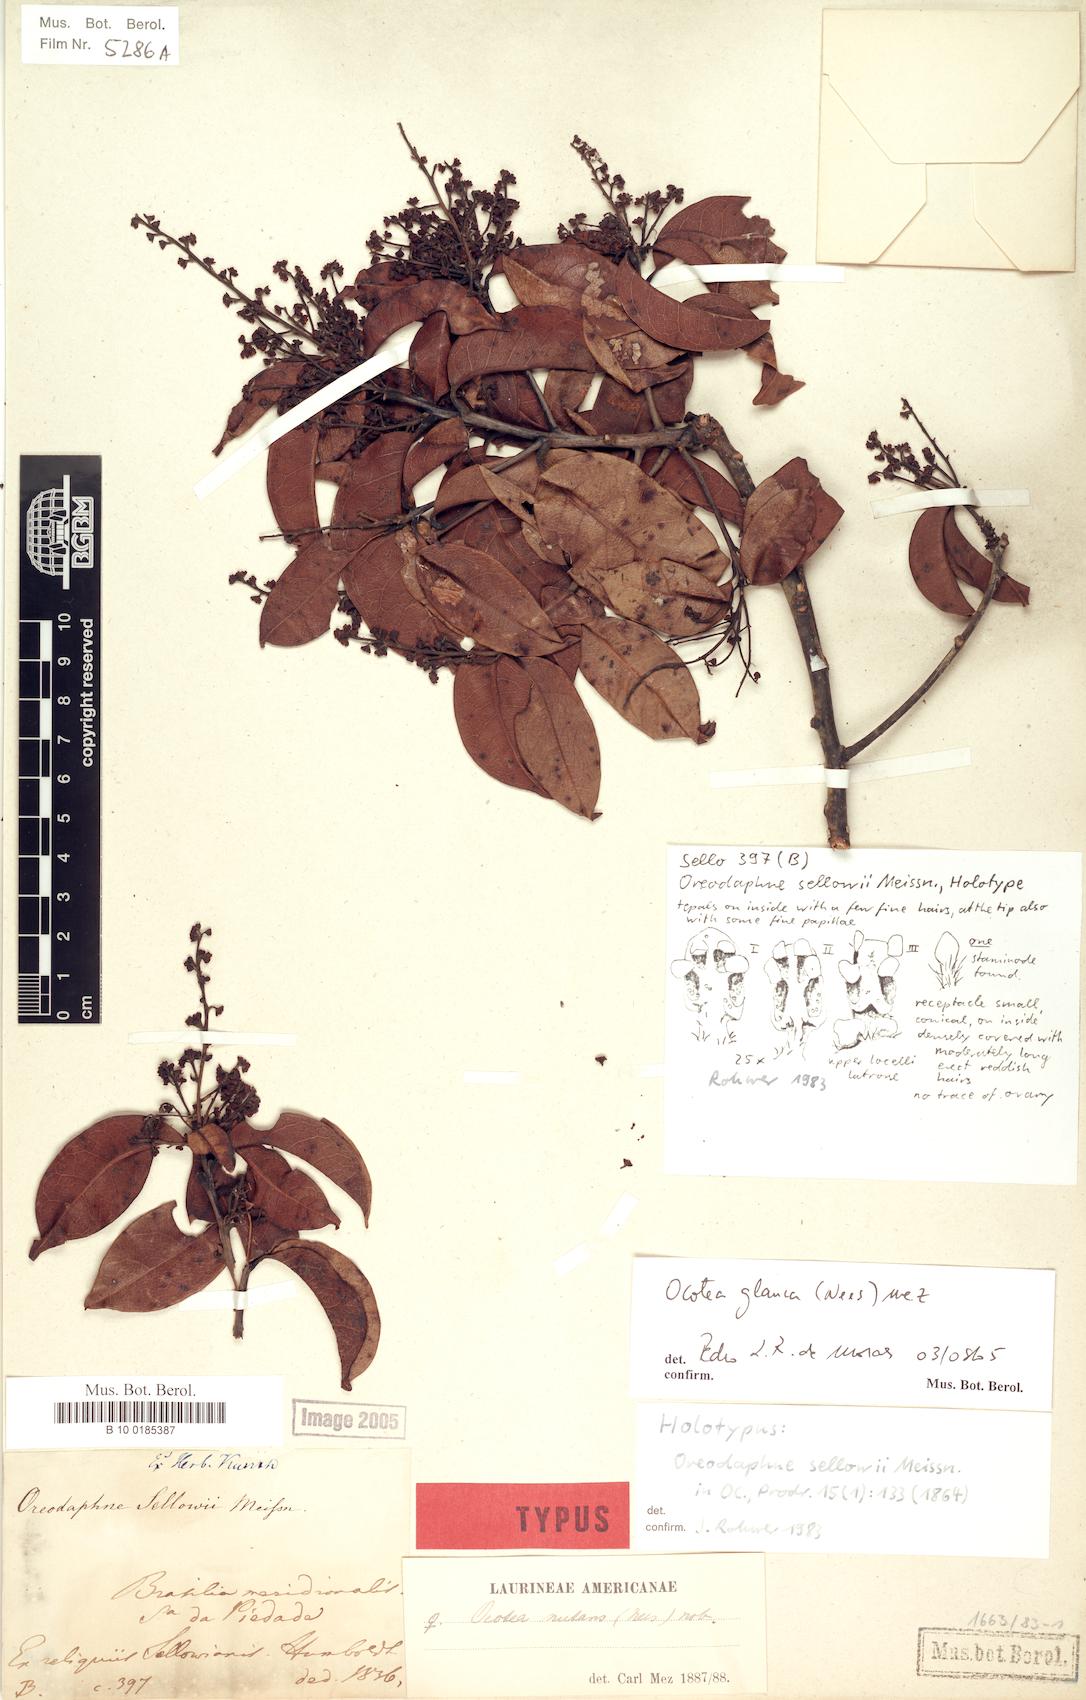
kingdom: Plantae
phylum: Tracheophyta
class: Magnoliopsida
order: Laurales
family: Lauraceae
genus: Mespilodaphne
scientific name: Mespilodaphne glauca
